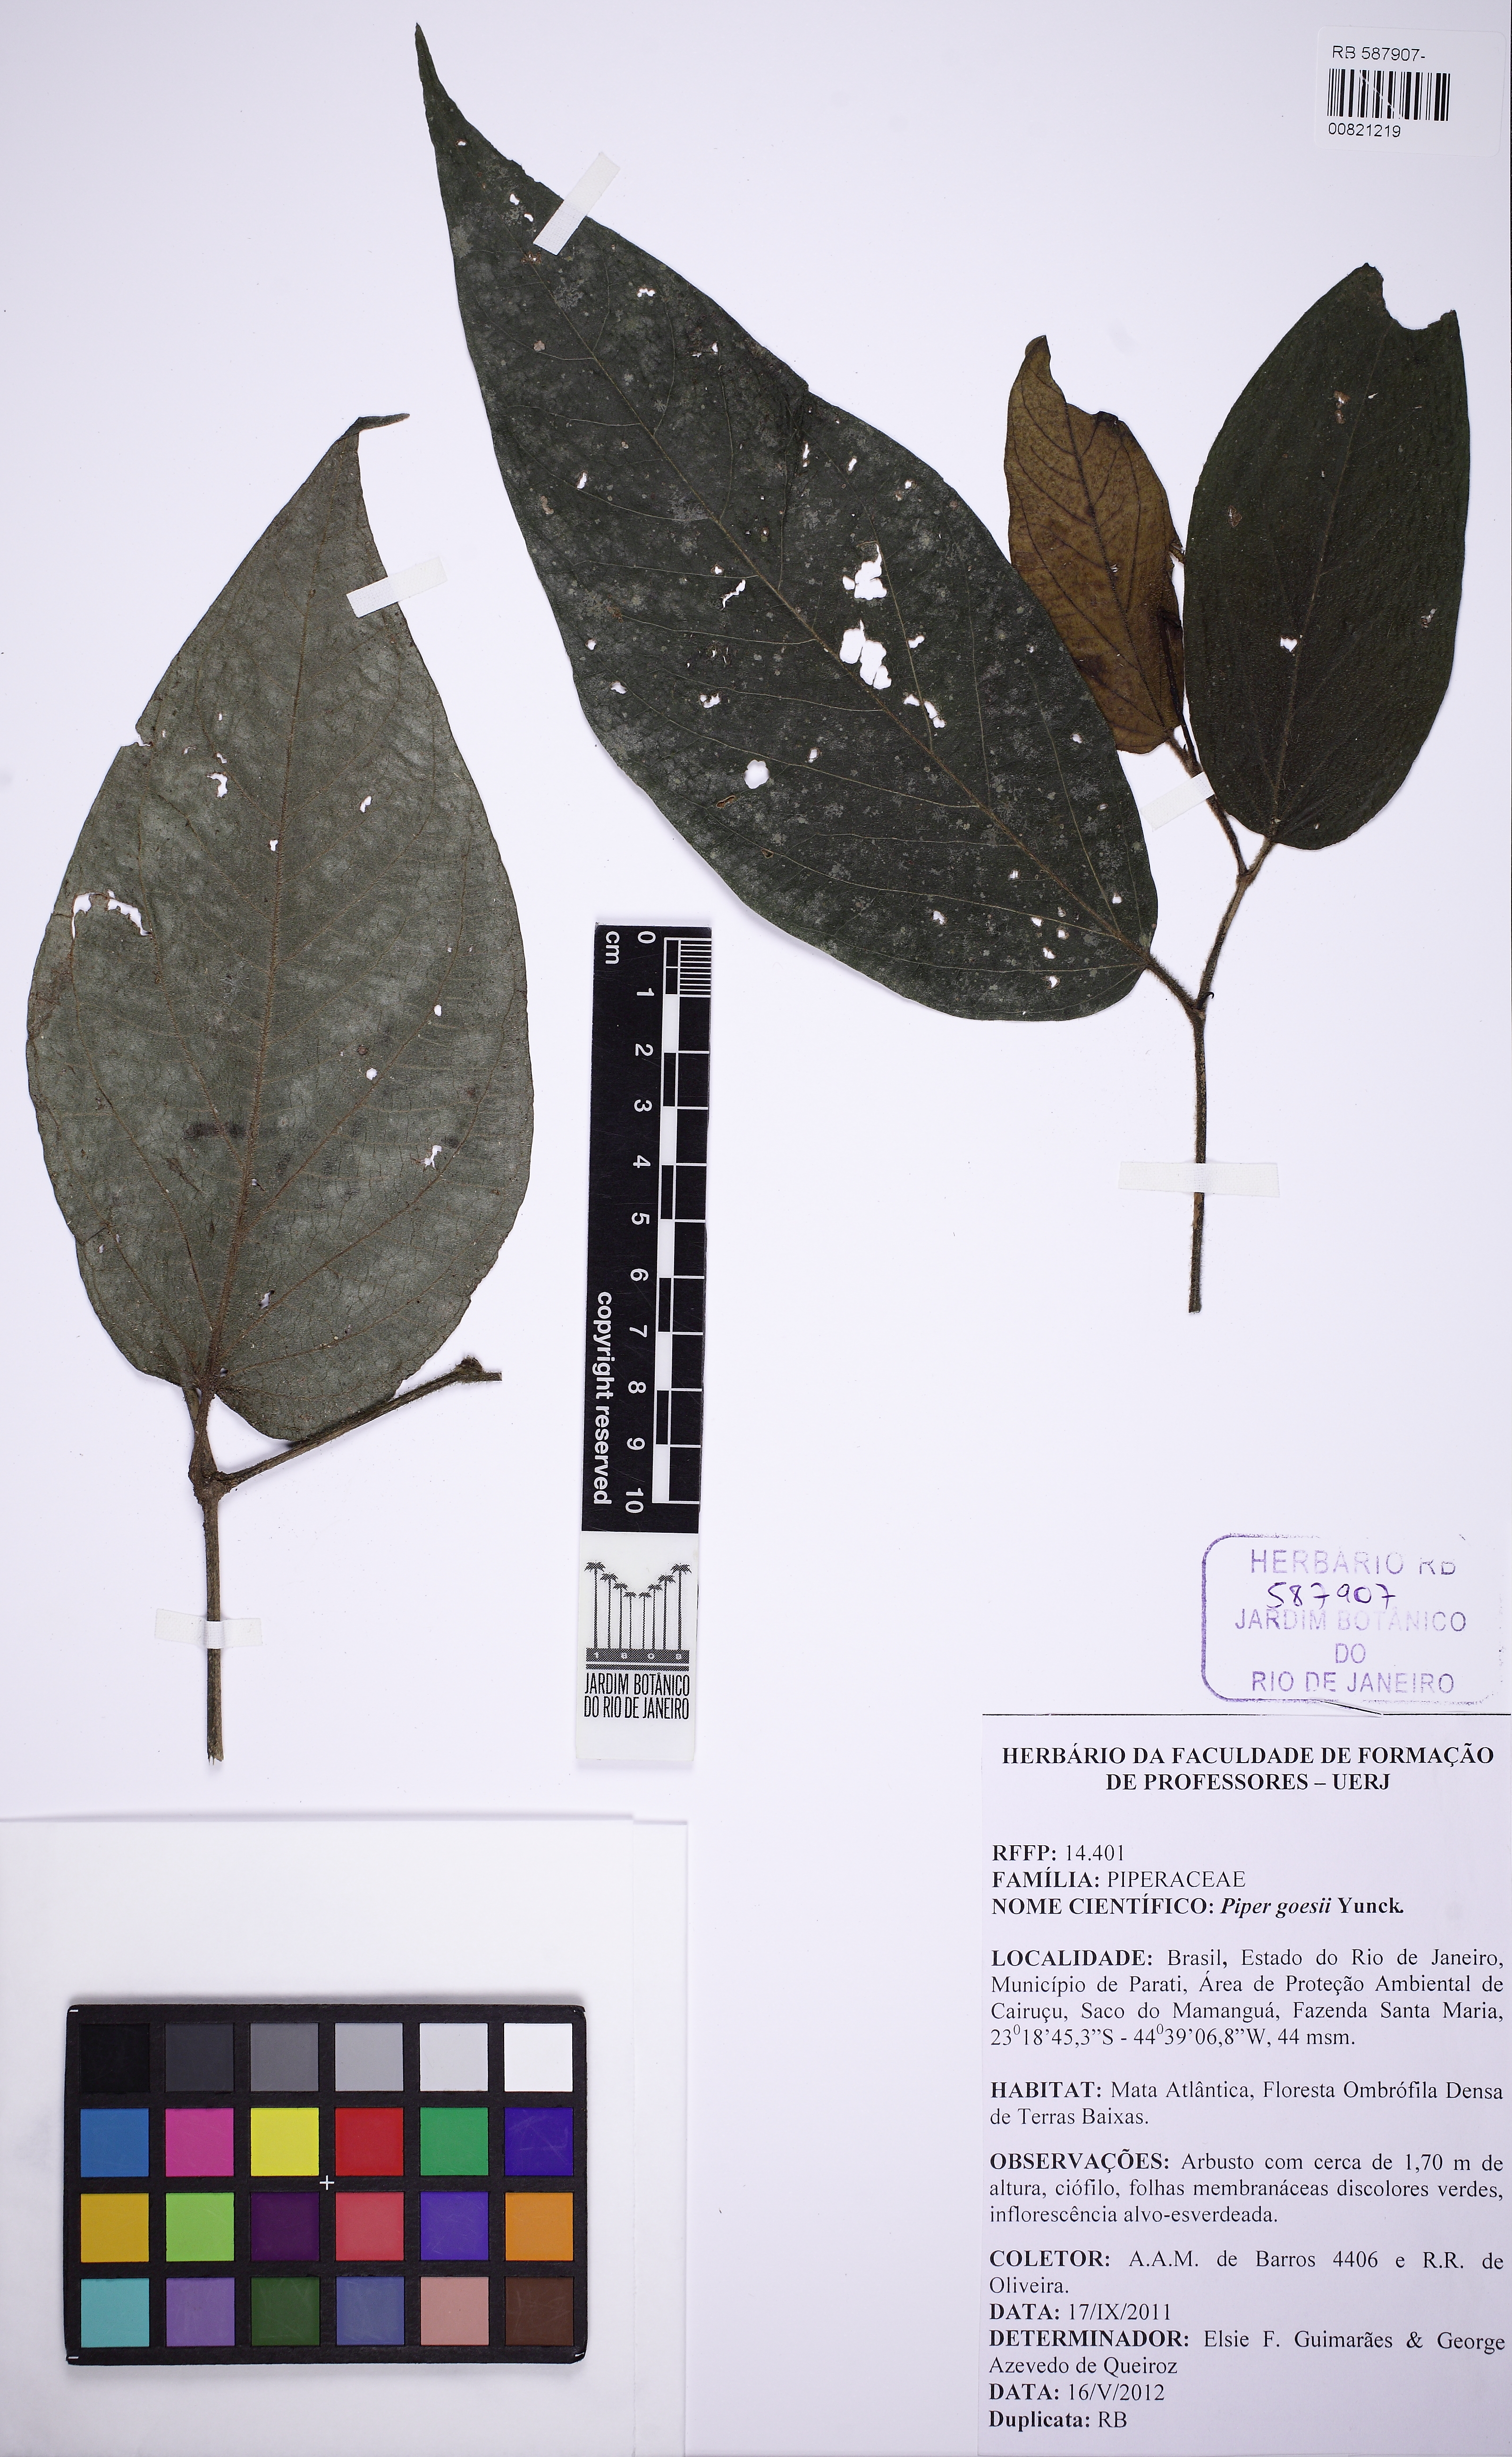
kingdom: Plantae
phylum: Tracheophyta
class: Magnoliopsida
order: Piperales
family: Piperaceae
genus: Piper
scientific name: Piper goesii
